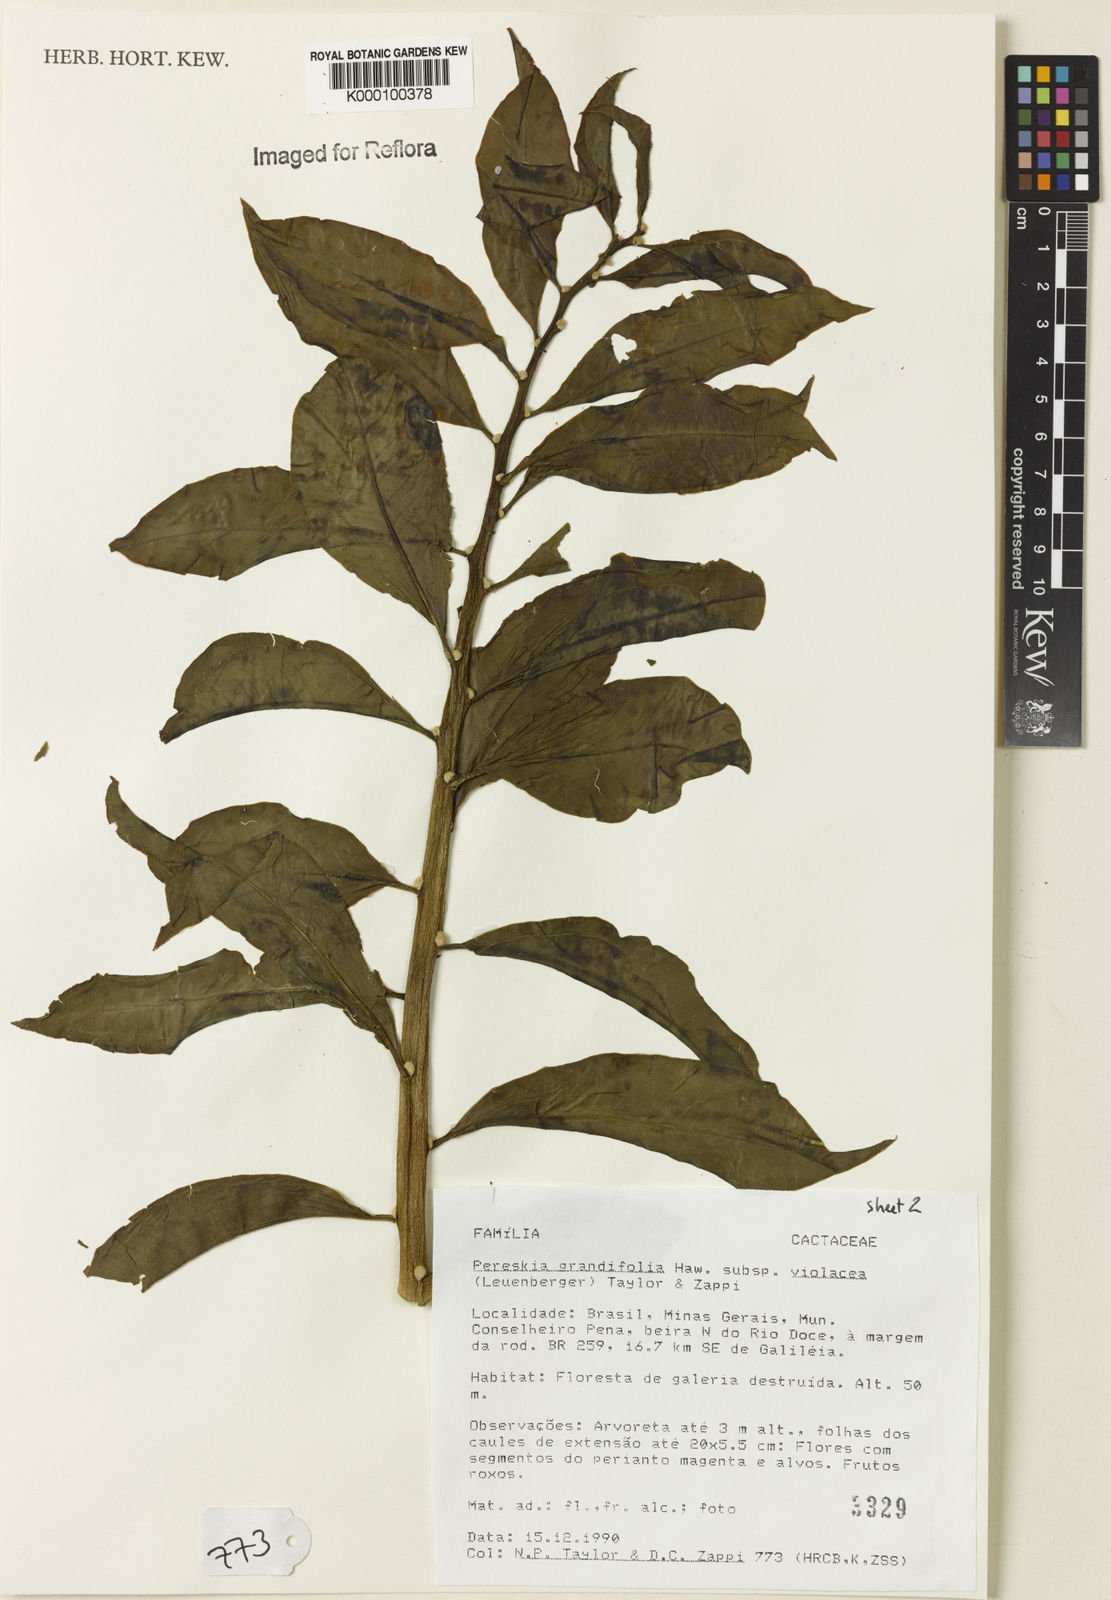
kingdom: Plantae
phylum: Tracheophyta
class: Magnoliopsida
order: Caryophyllales
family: Cactaceae
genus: Pereskia
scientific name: Pereskia grandifolia
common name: Rose cactus
